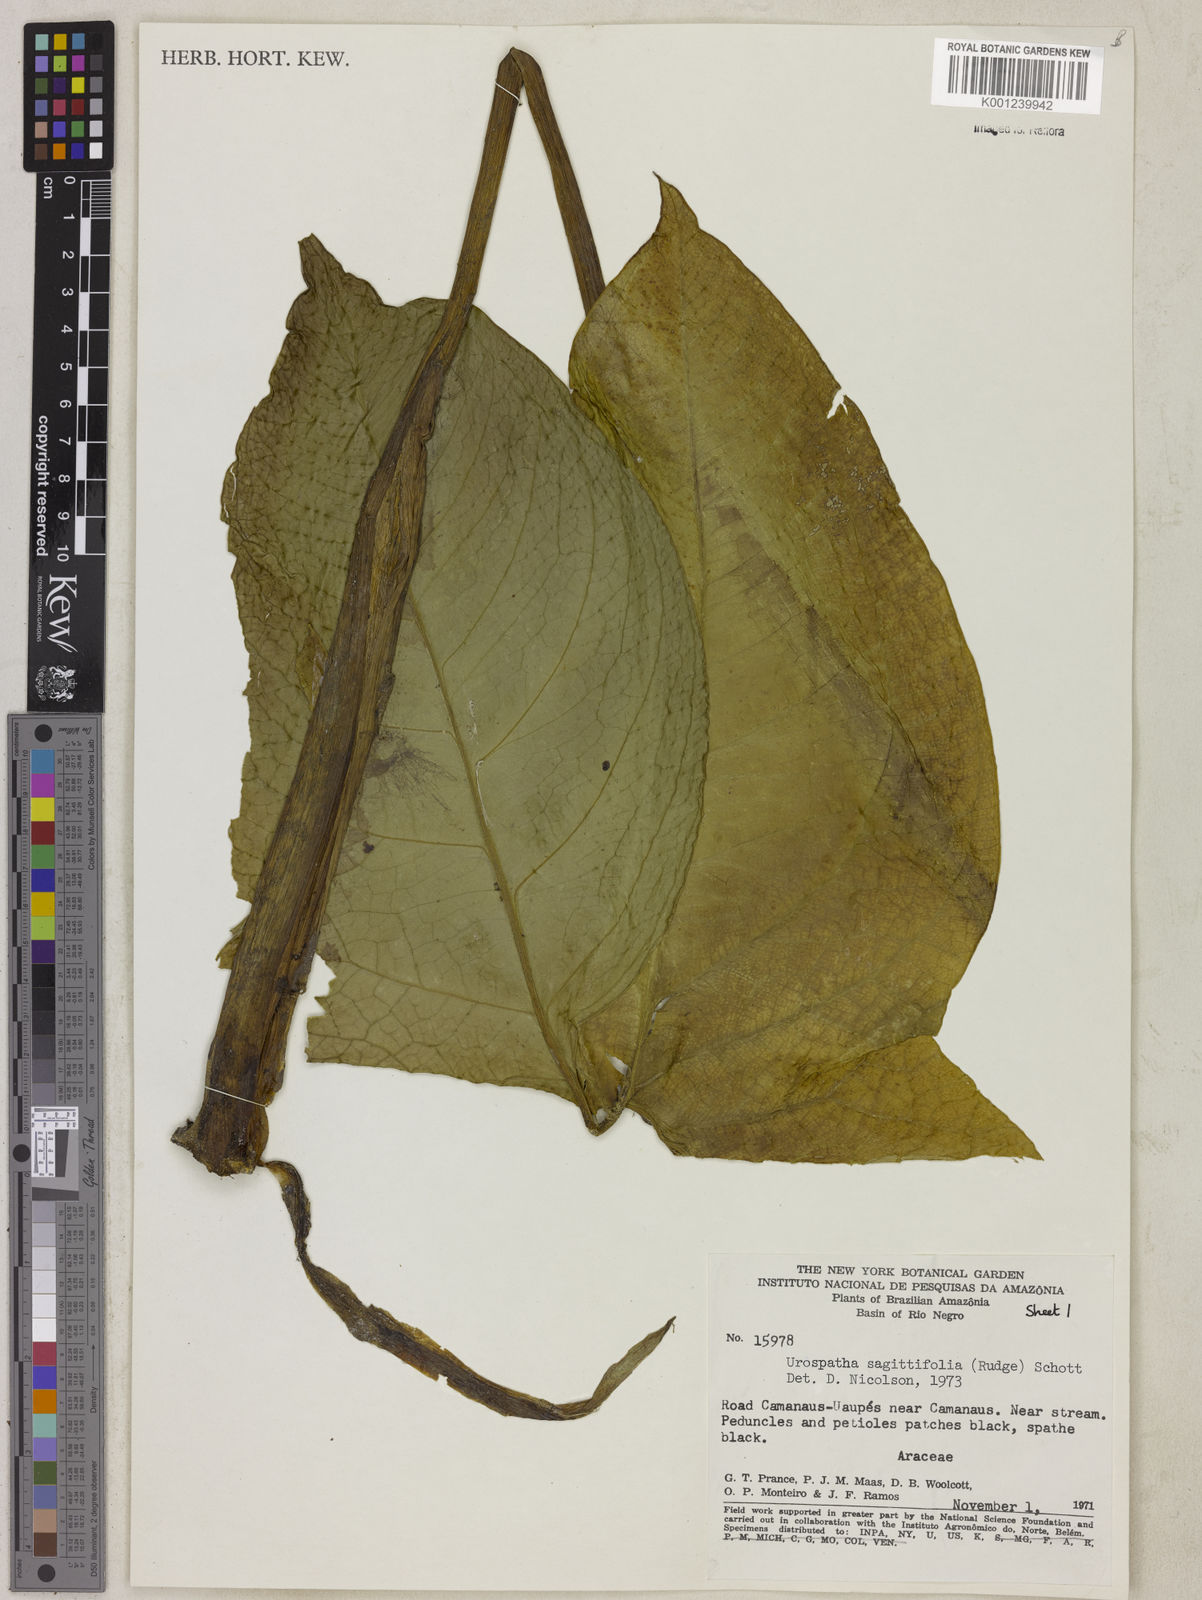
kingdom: Plantae
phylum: Tracheophyta
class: Liliopsida
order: Alismatales
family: Araceae
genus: Urospatha
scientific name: Urospatha sagittifolia
